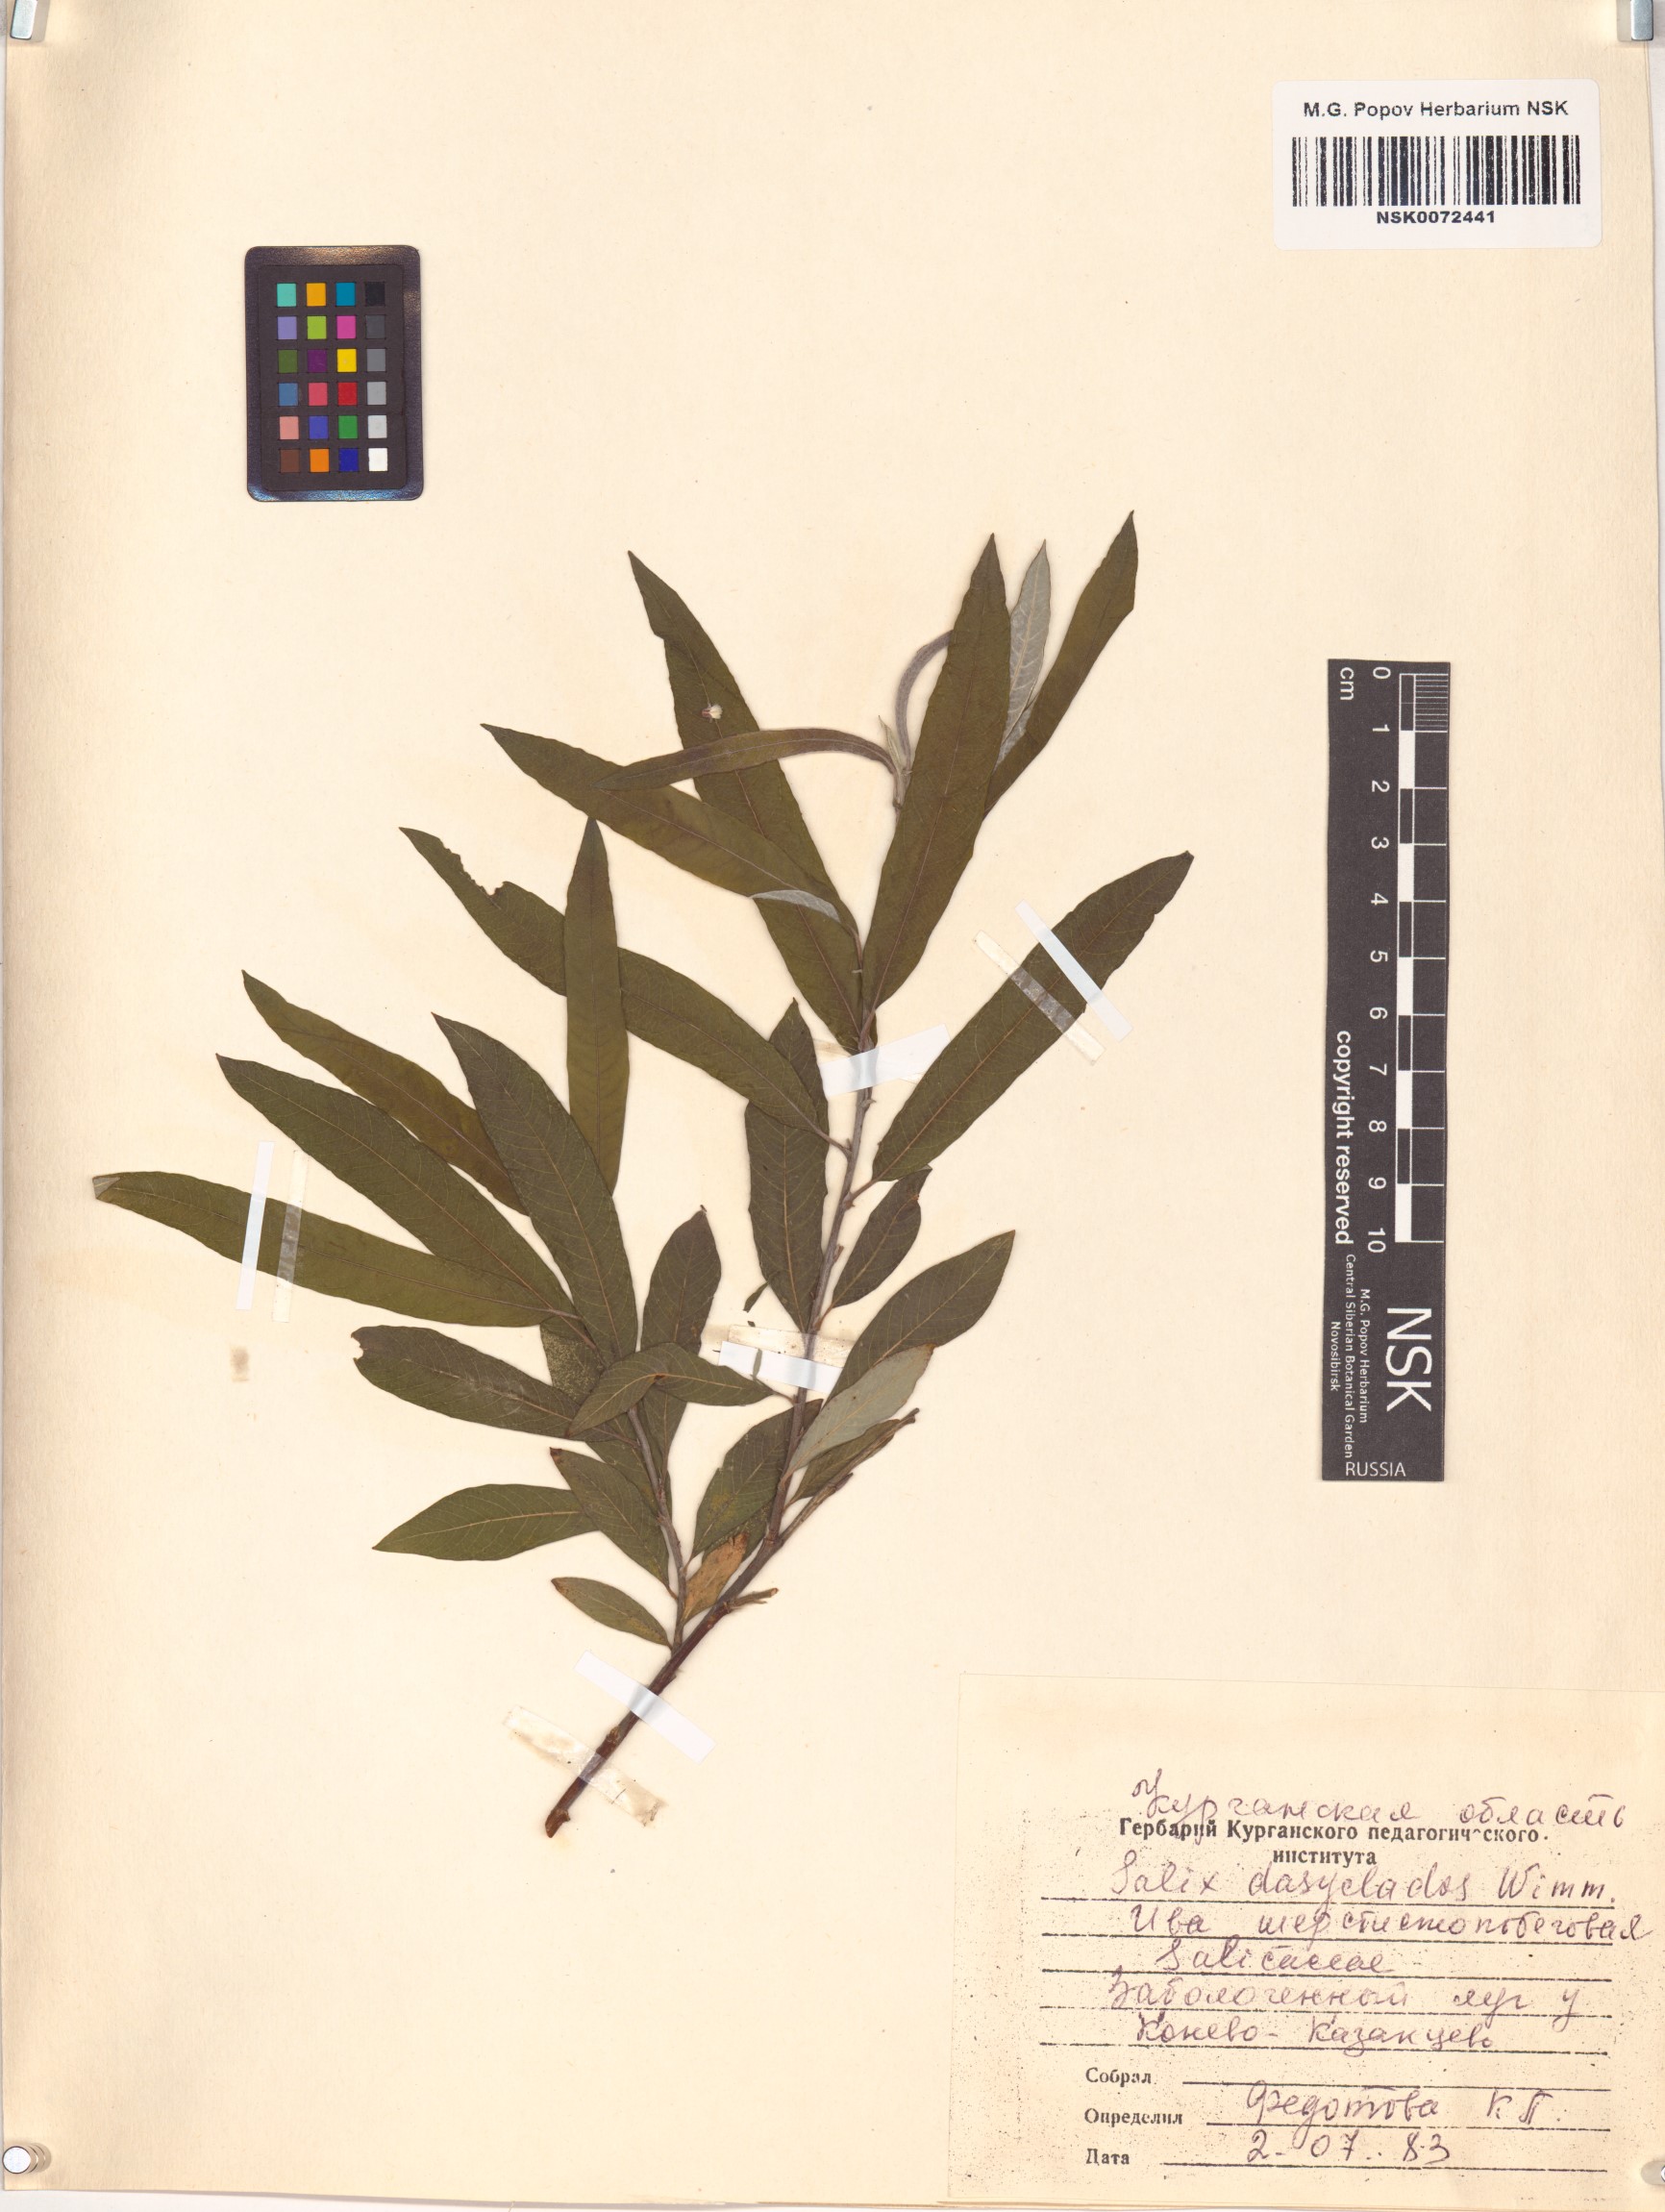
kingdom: Plantae
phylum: Tracheophyta
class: Magnoliopsida
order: Malpighiales
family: Salicaceae
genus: Salix
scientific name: Salix gmelinii
